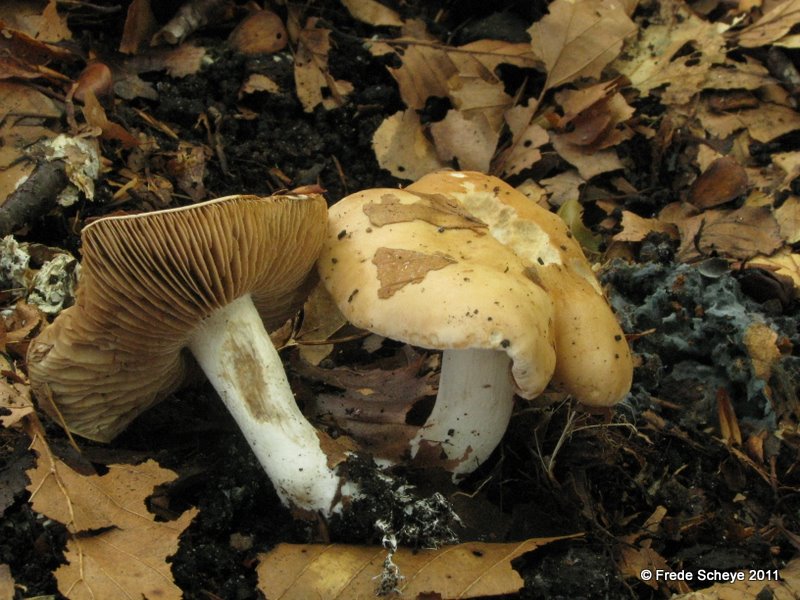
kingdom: Fungi
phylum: Basidiomycota
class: Agaricomycetes
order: Russulales
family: Russulaceae
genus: Russula
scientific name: Russula ochroleuca
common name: okkergul skørhat
